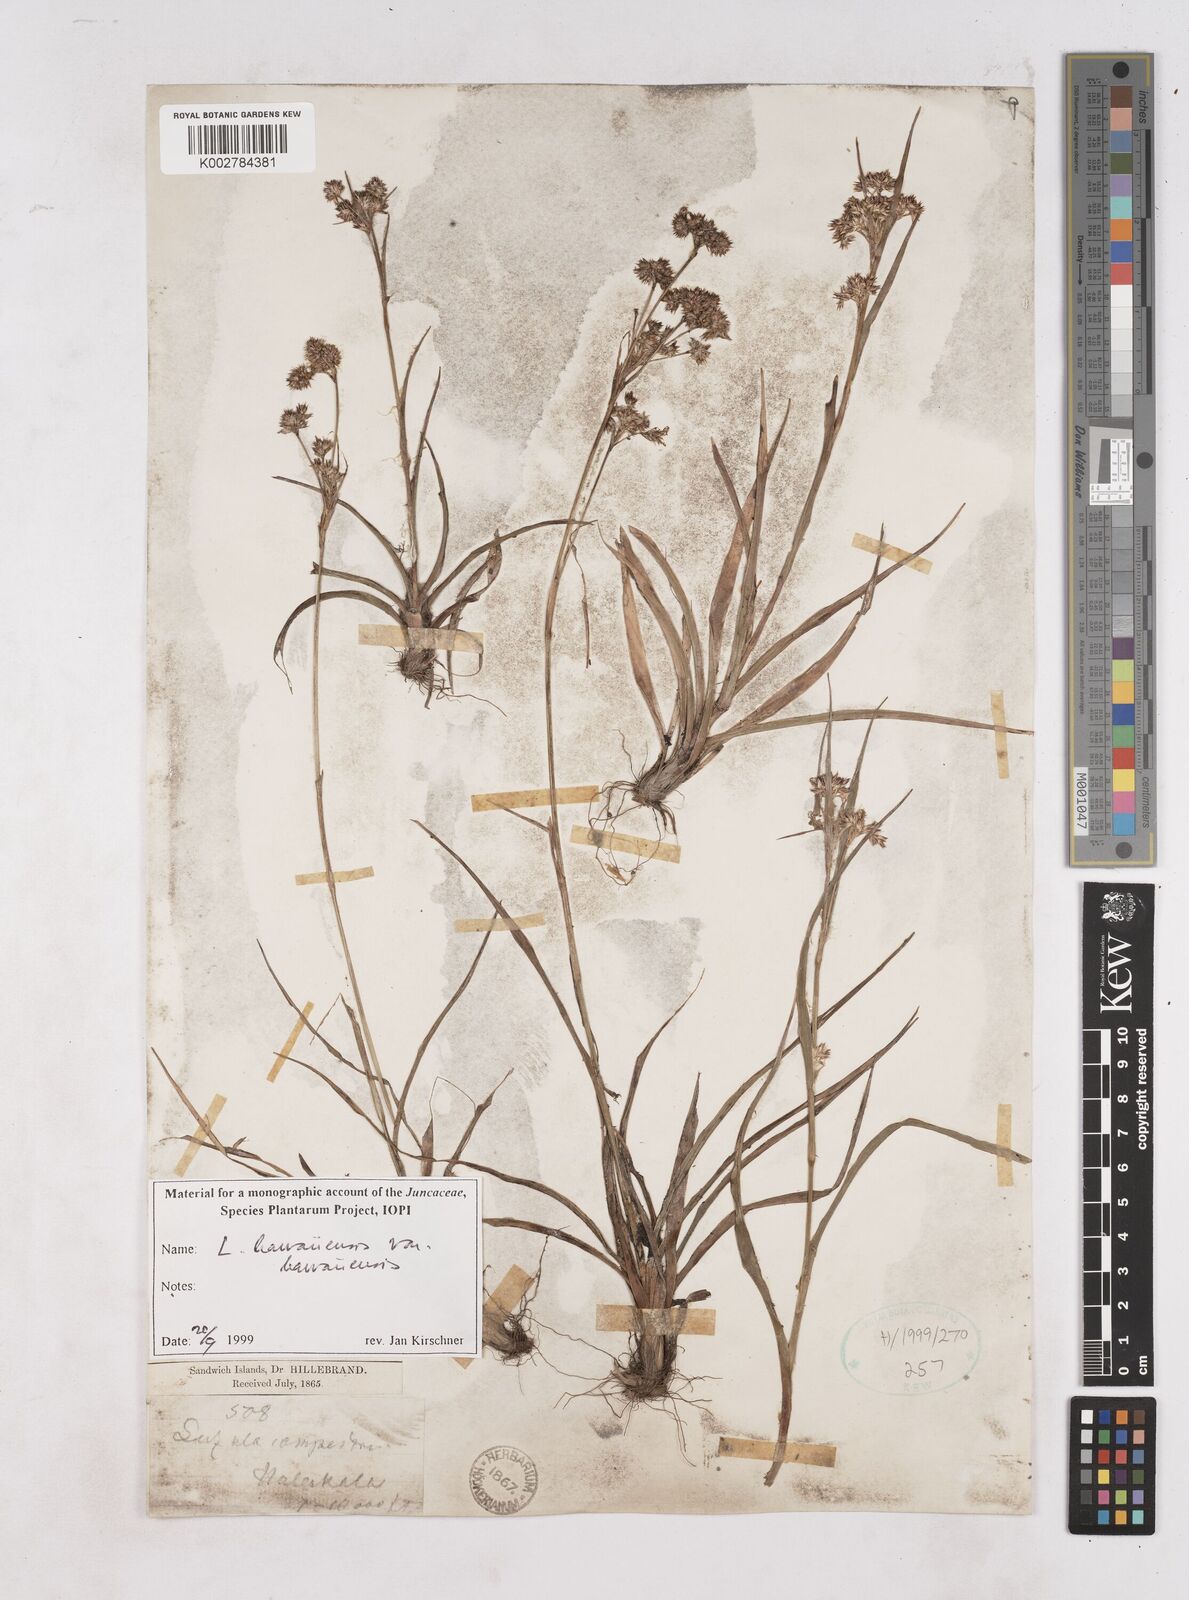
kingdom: Plantae
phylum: Tracheophyta
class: Liliopsida
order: Poales
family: Juncaceae
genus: Luzula
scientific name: Luzula campestris
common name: Field wood-rush
